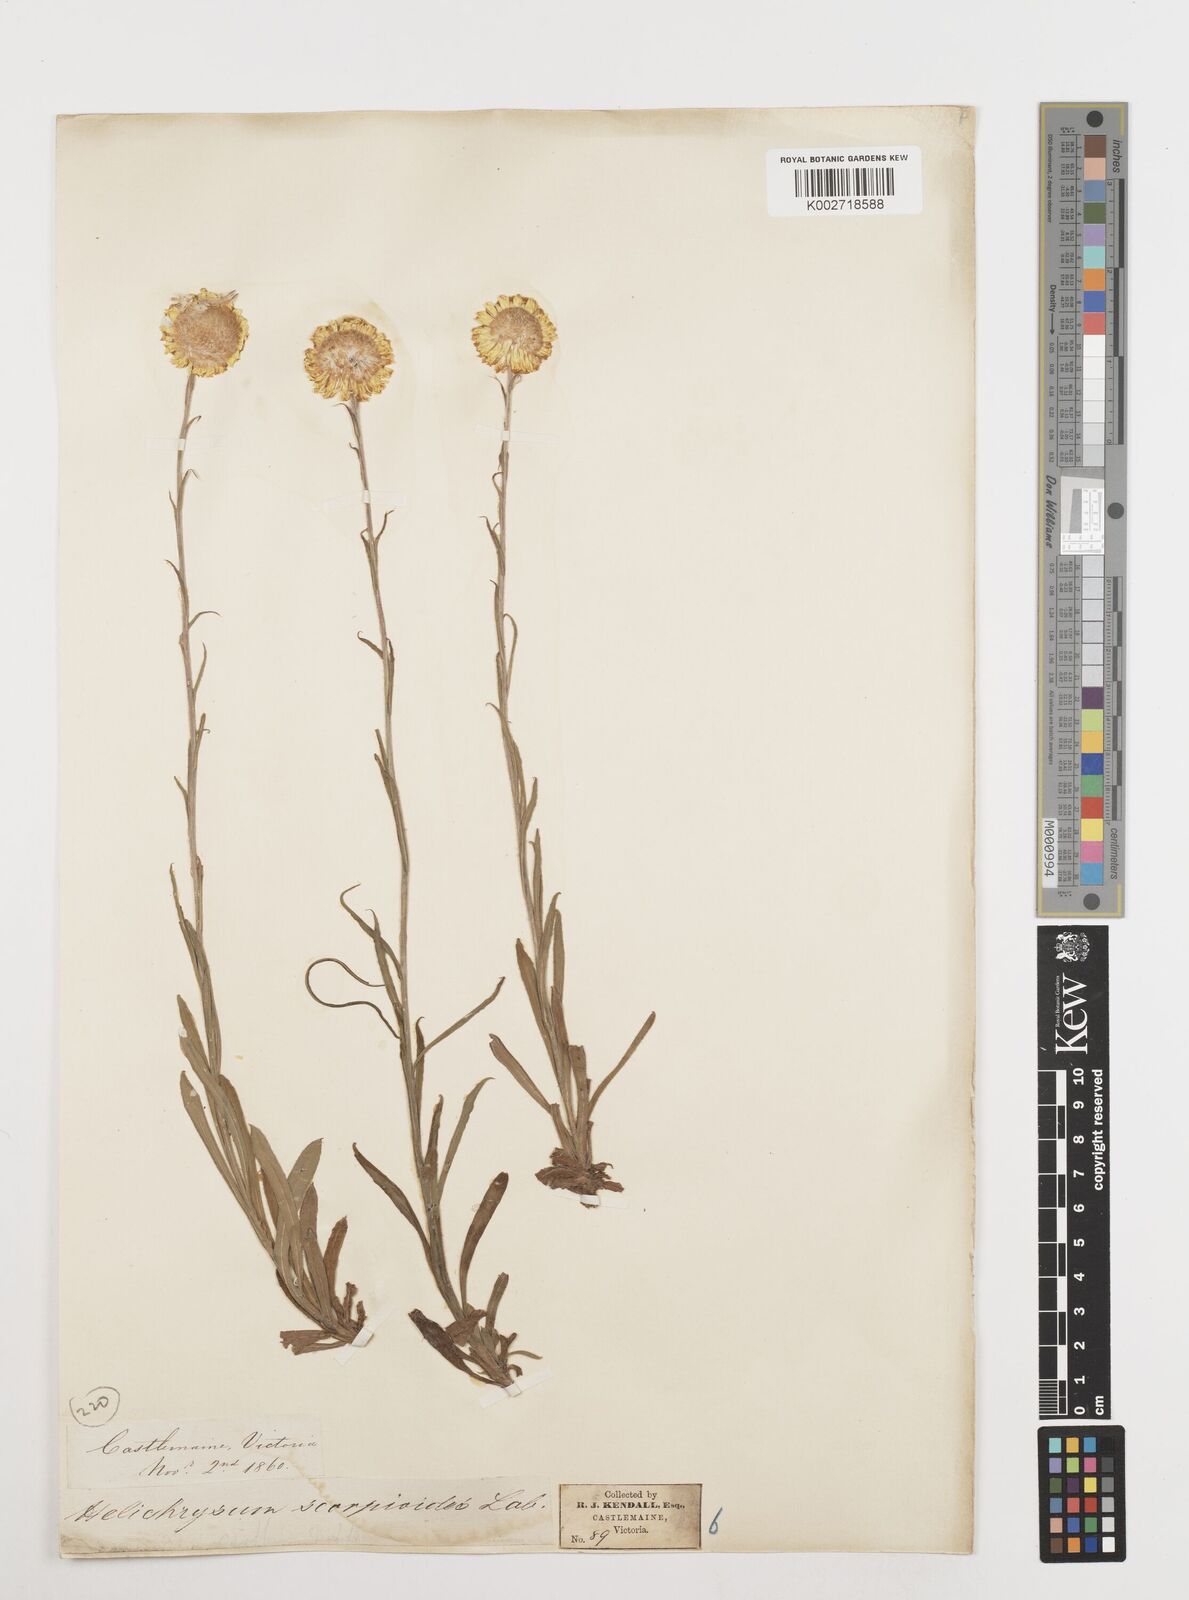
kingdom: Plantae
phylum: Tracheophyta
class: Magnoliopsida
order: Asterales
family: Asteraceae
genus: Coronidium
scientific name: Coronidium scorpioides
